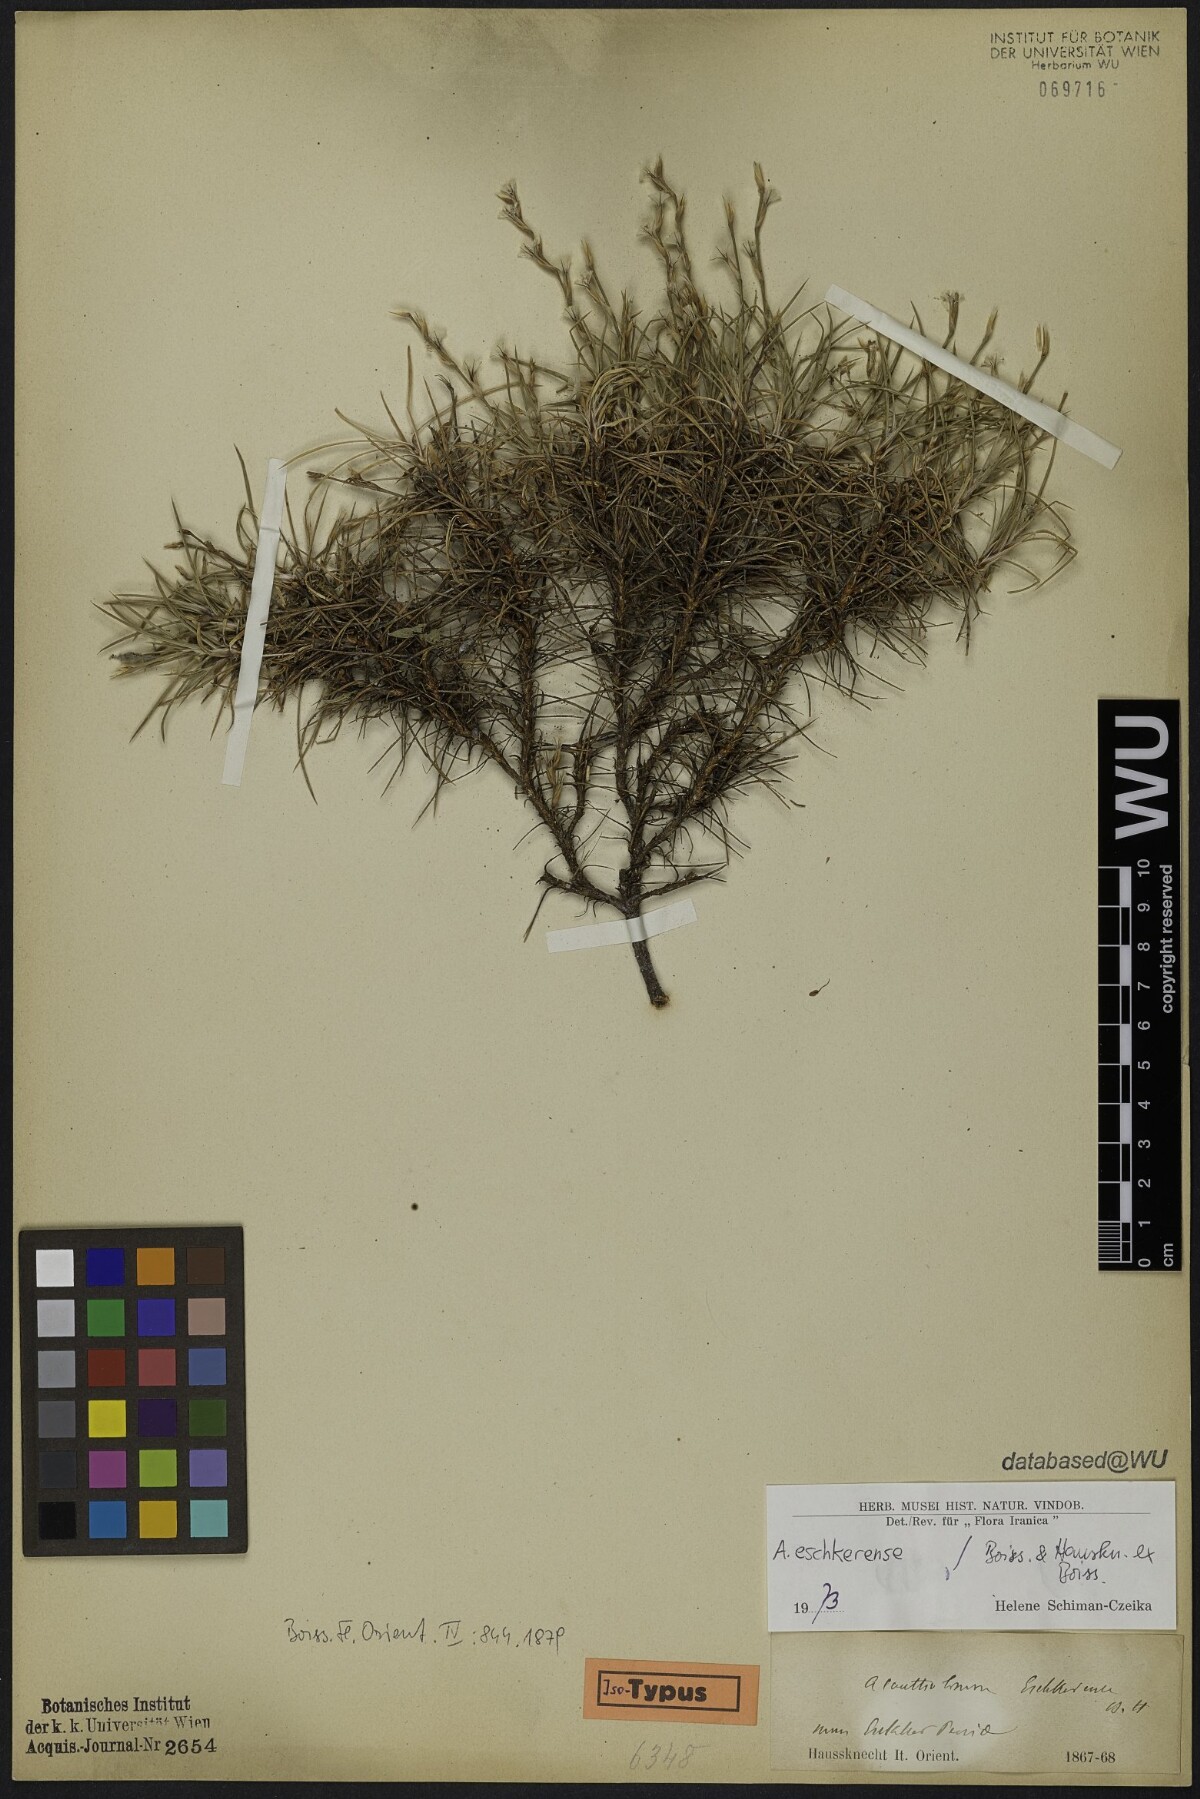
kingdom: Plantae
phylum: Tracheophyta
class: Magnoliopsida
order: Caryophyllales
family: Plumbaginaceae
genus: Acantholimon
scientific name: Acantholimon eschkerense
